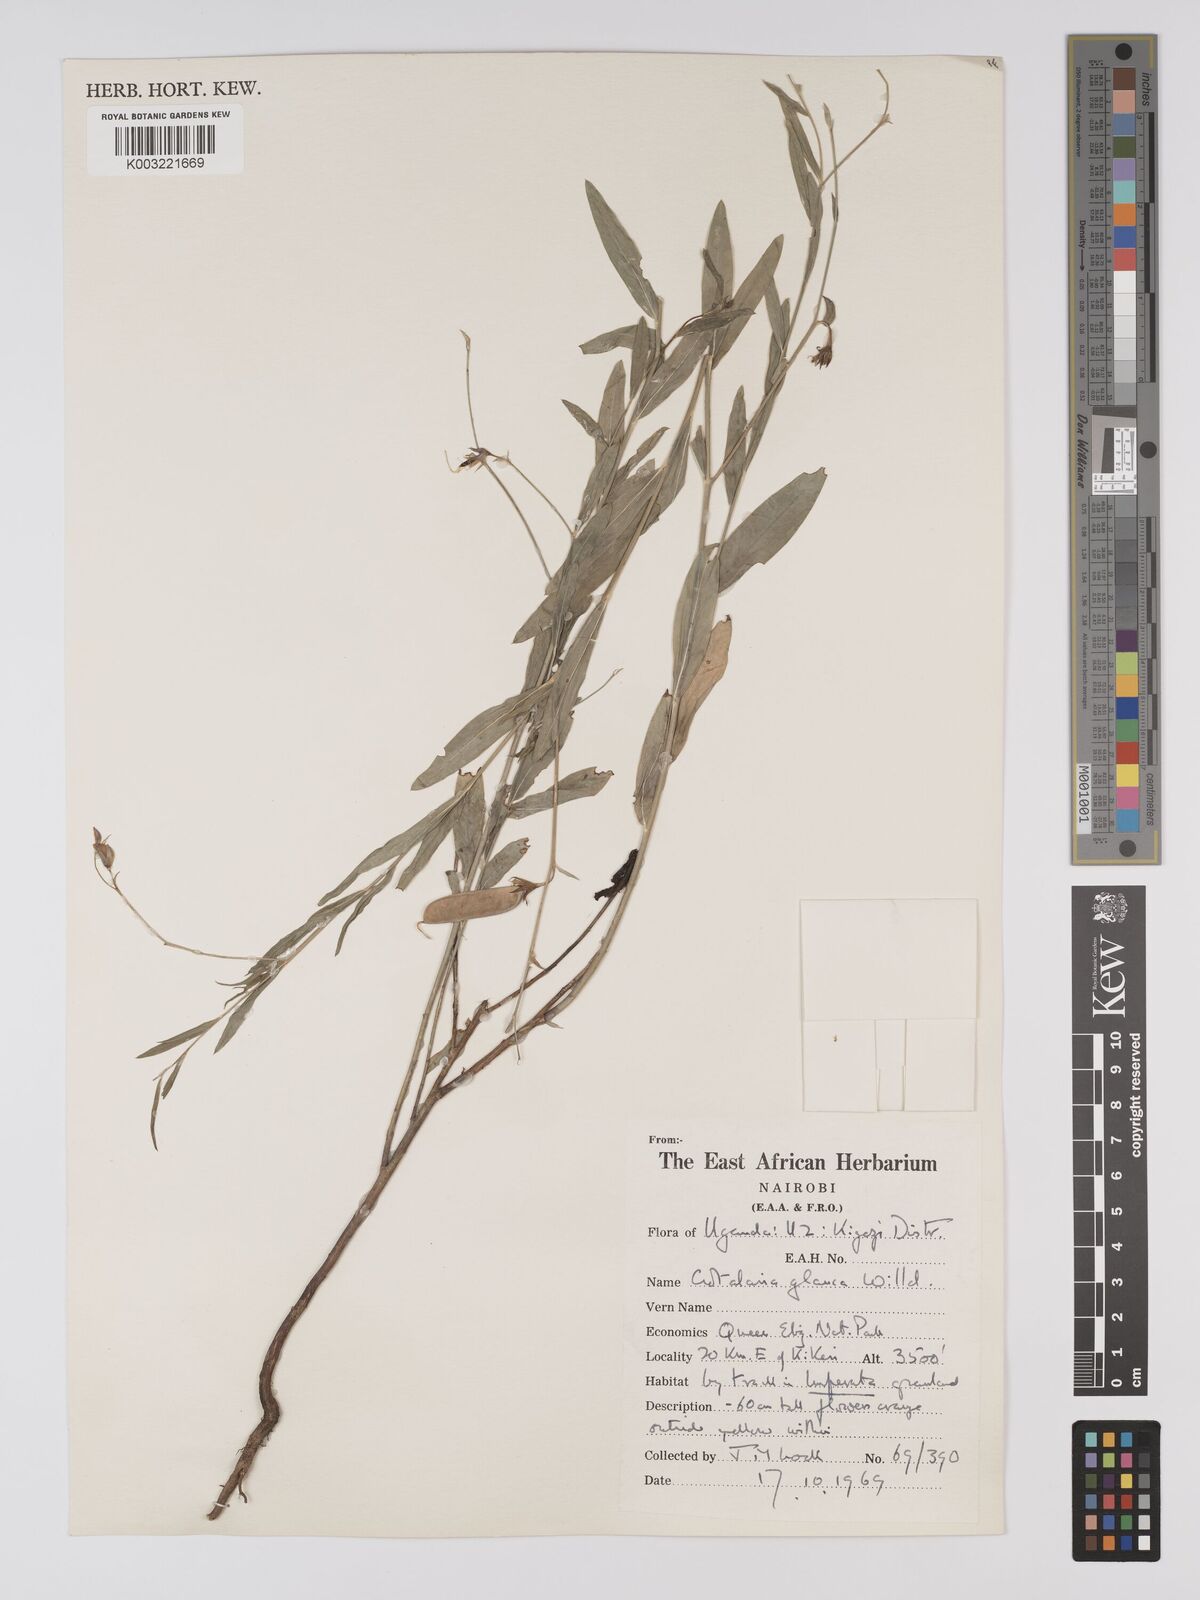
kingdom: Plantae
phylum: Tracheophyta
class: Magnoliopsida
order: Fabales
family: Fabaceae
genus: Crotalaria
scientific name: Crotalaria glauca
